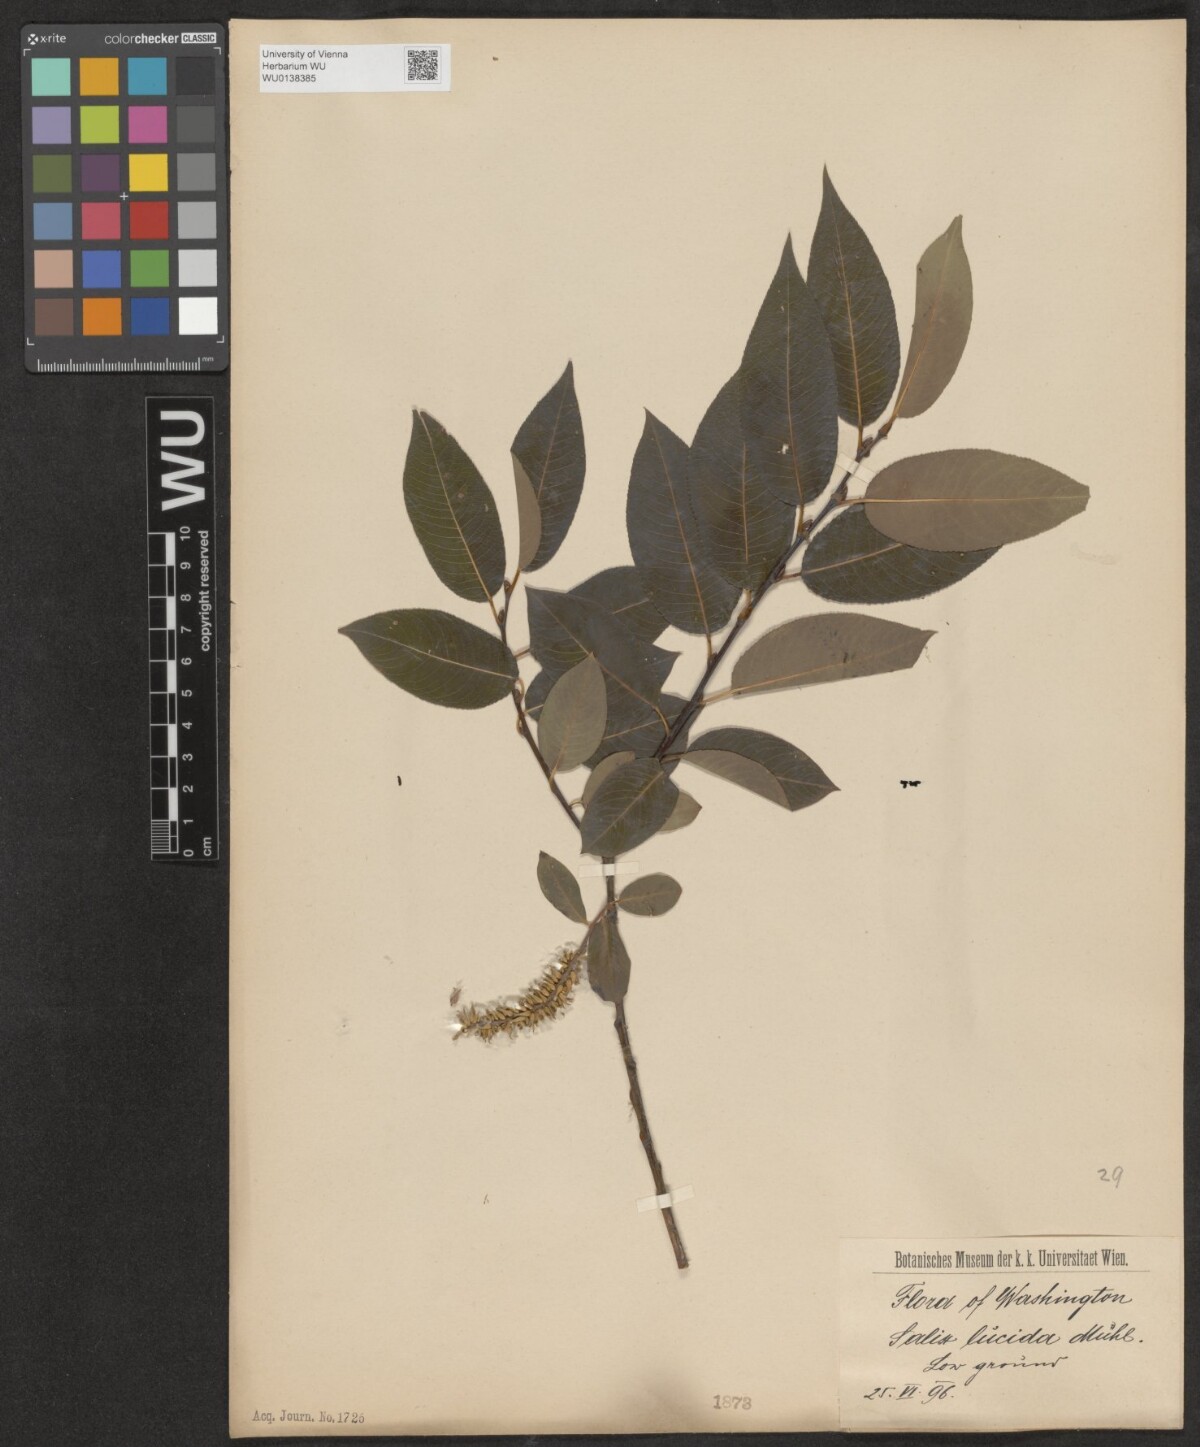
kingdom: Plantae
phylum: Tracheophyta
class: Magnoliopsida
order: Malpighiales
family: Salicaceae
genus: Salix
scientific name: Salix lucida
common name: Shining willow
